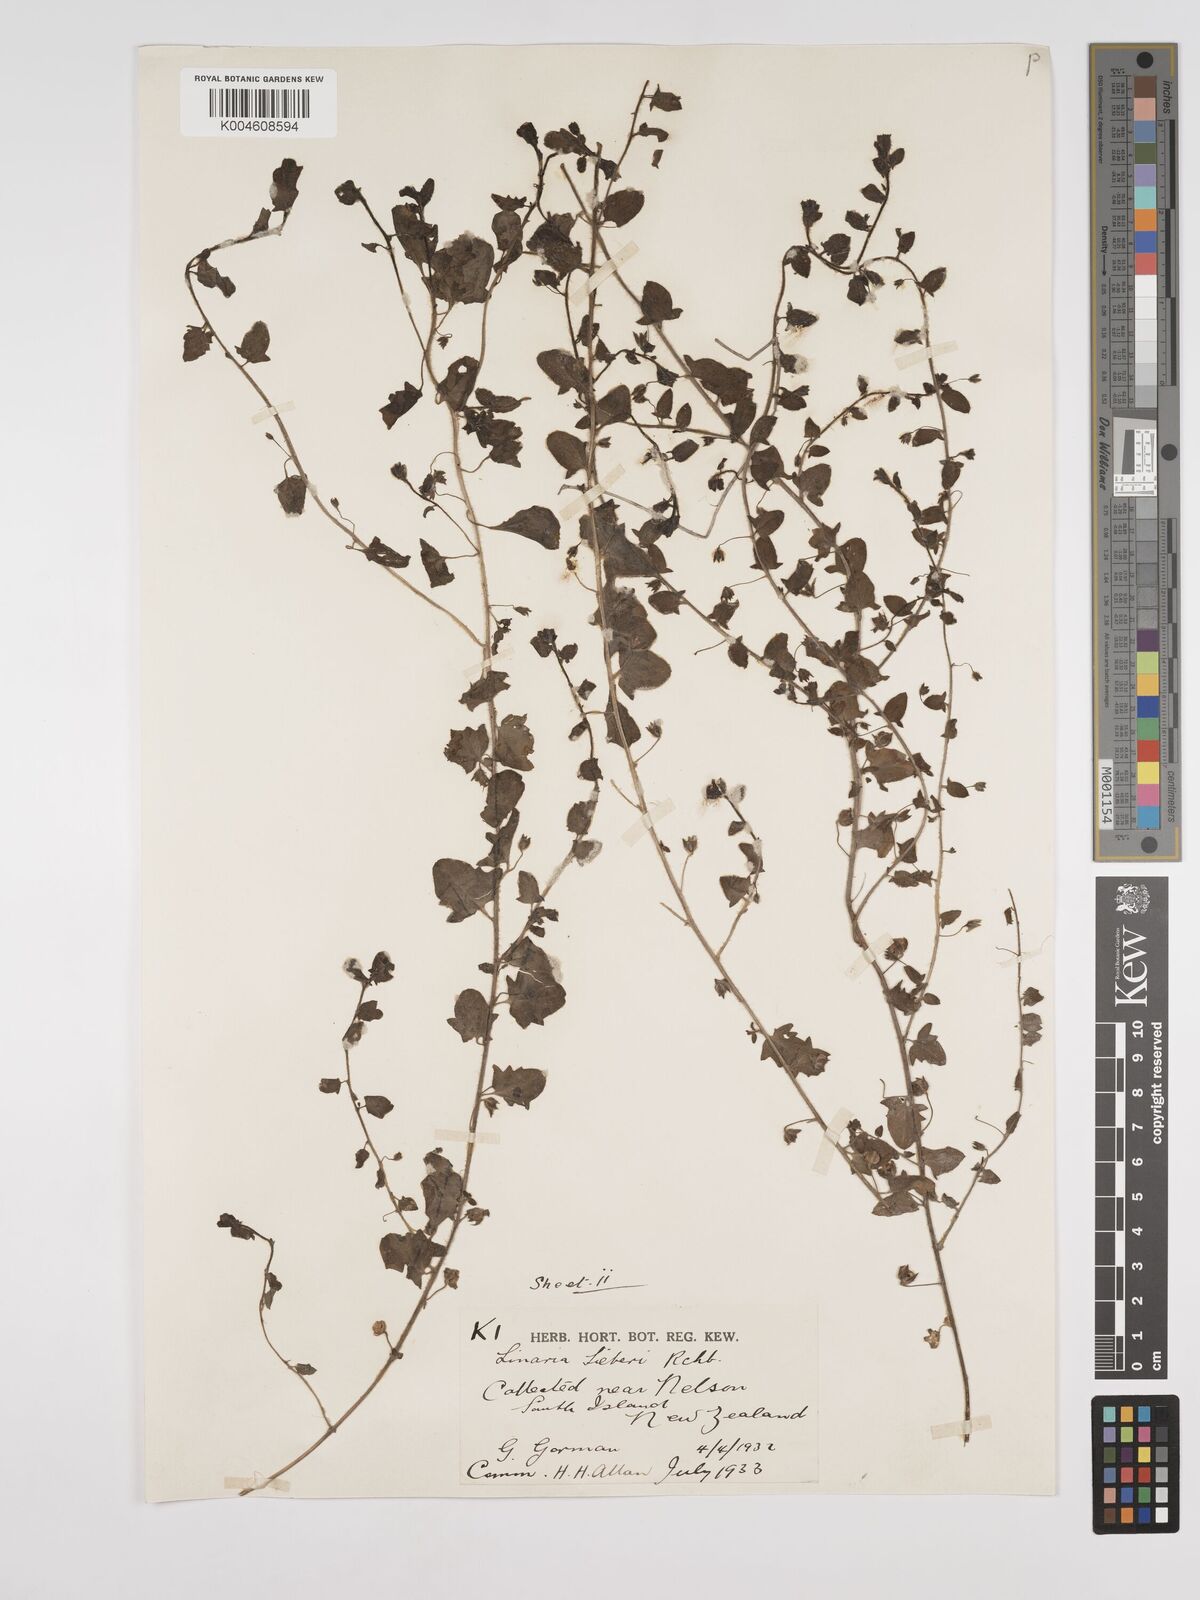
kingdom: Plantae
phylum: Tracheophyta
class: Magnoliopsida
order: Lamiales
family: Plantaginaceae
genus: Kickxia
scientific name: Kickxia elatine
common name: Sharp-leaved fluellen
